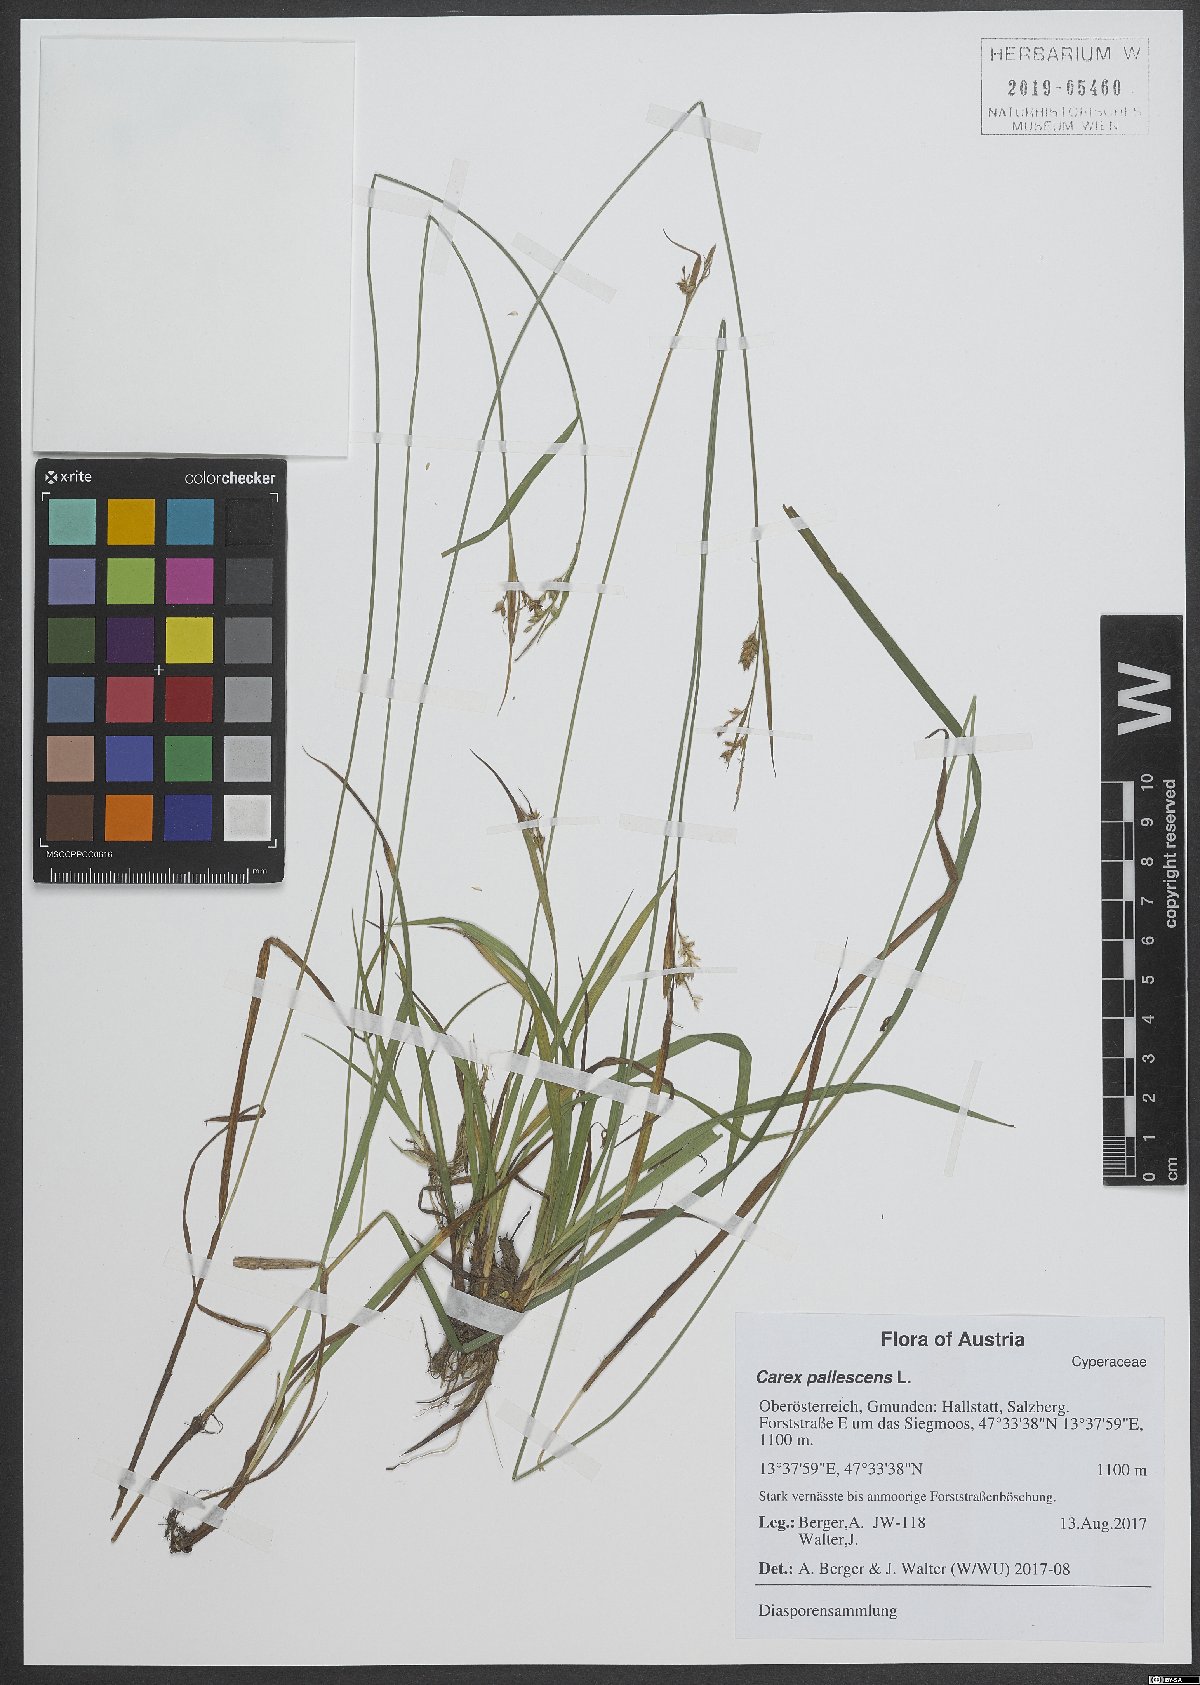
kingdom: Plantae
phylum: Tracheophyta
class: Liliopsida
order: Poales
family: Cyperaceae
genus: Carex
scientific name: Carex pallescens
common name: Pale sedge
